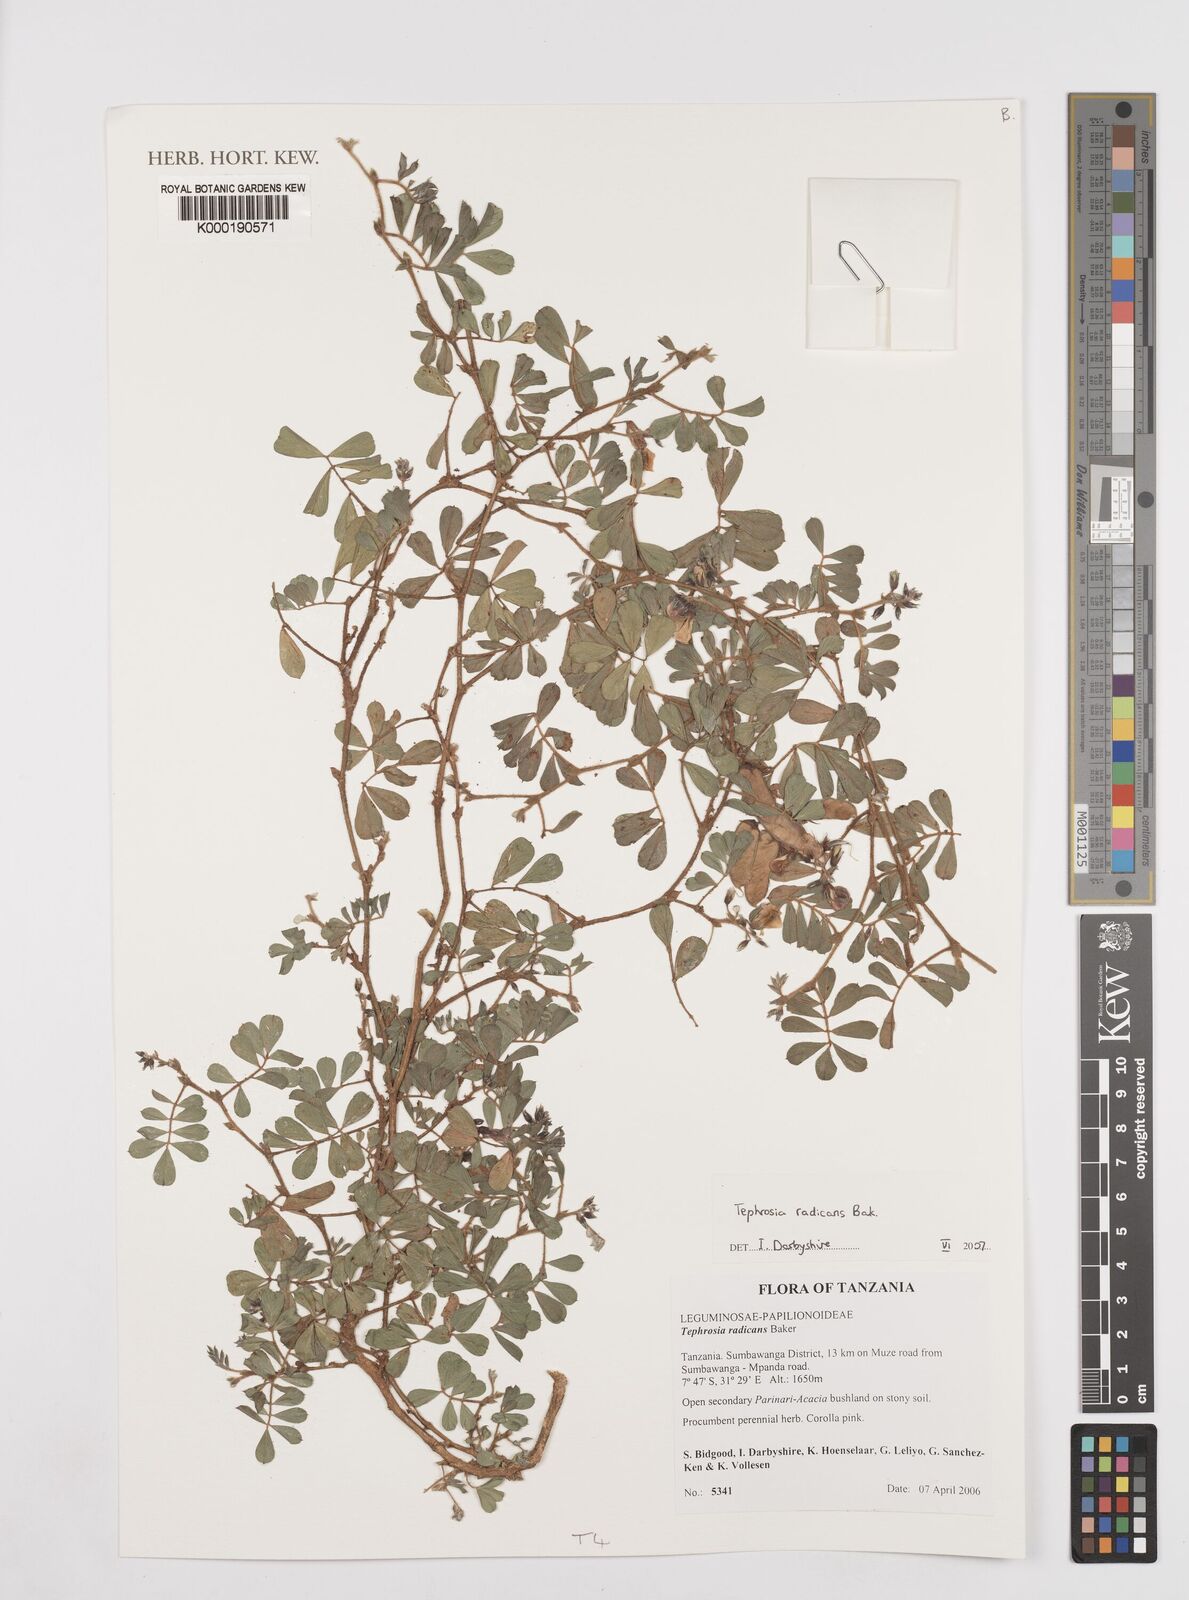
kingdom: Plantae
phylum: Tracheophyta
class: Magnoliopsida
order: Fabales
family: Fabaceae
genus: Tephrosia
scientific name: Tephrosia radicans
